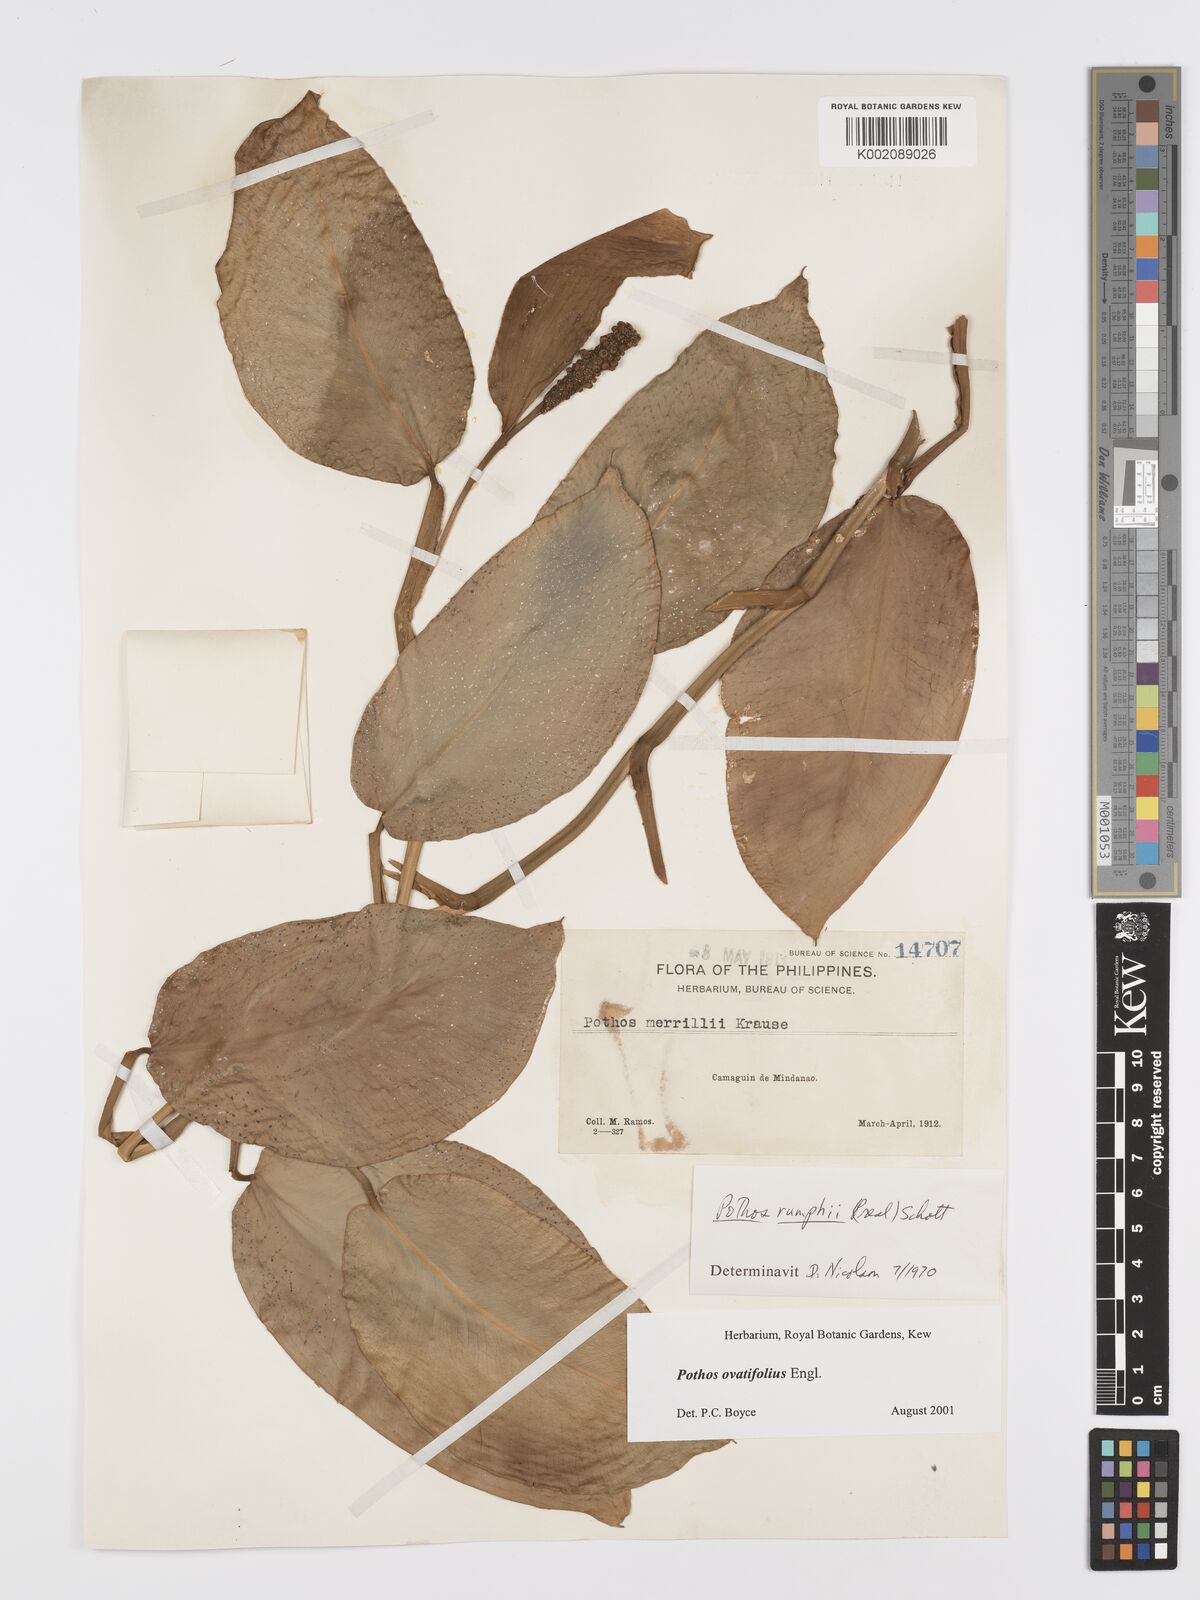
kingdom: Plantae
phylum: Tracheophyta
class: Liliopsida
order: Alismatales
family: Araceae
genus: Pothos
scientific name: Pothos ovatifolius
